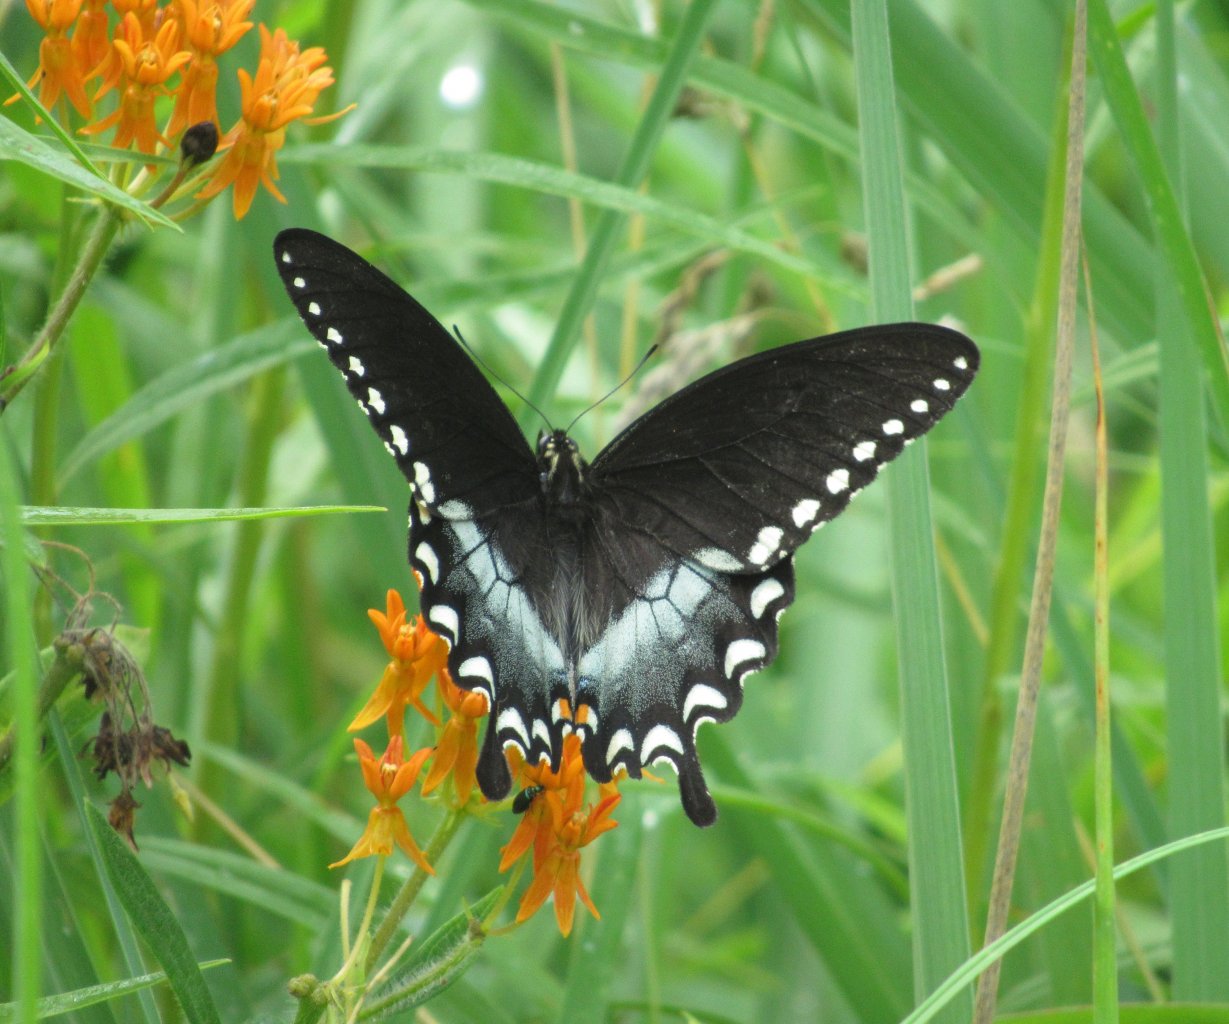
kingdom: Animalia
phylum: Arthropoda
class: Insecta
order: Lepidoptera
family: Papilionidae
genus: Pterourus
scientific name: Pterourus troilus
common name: Spicebush Swallowtail
